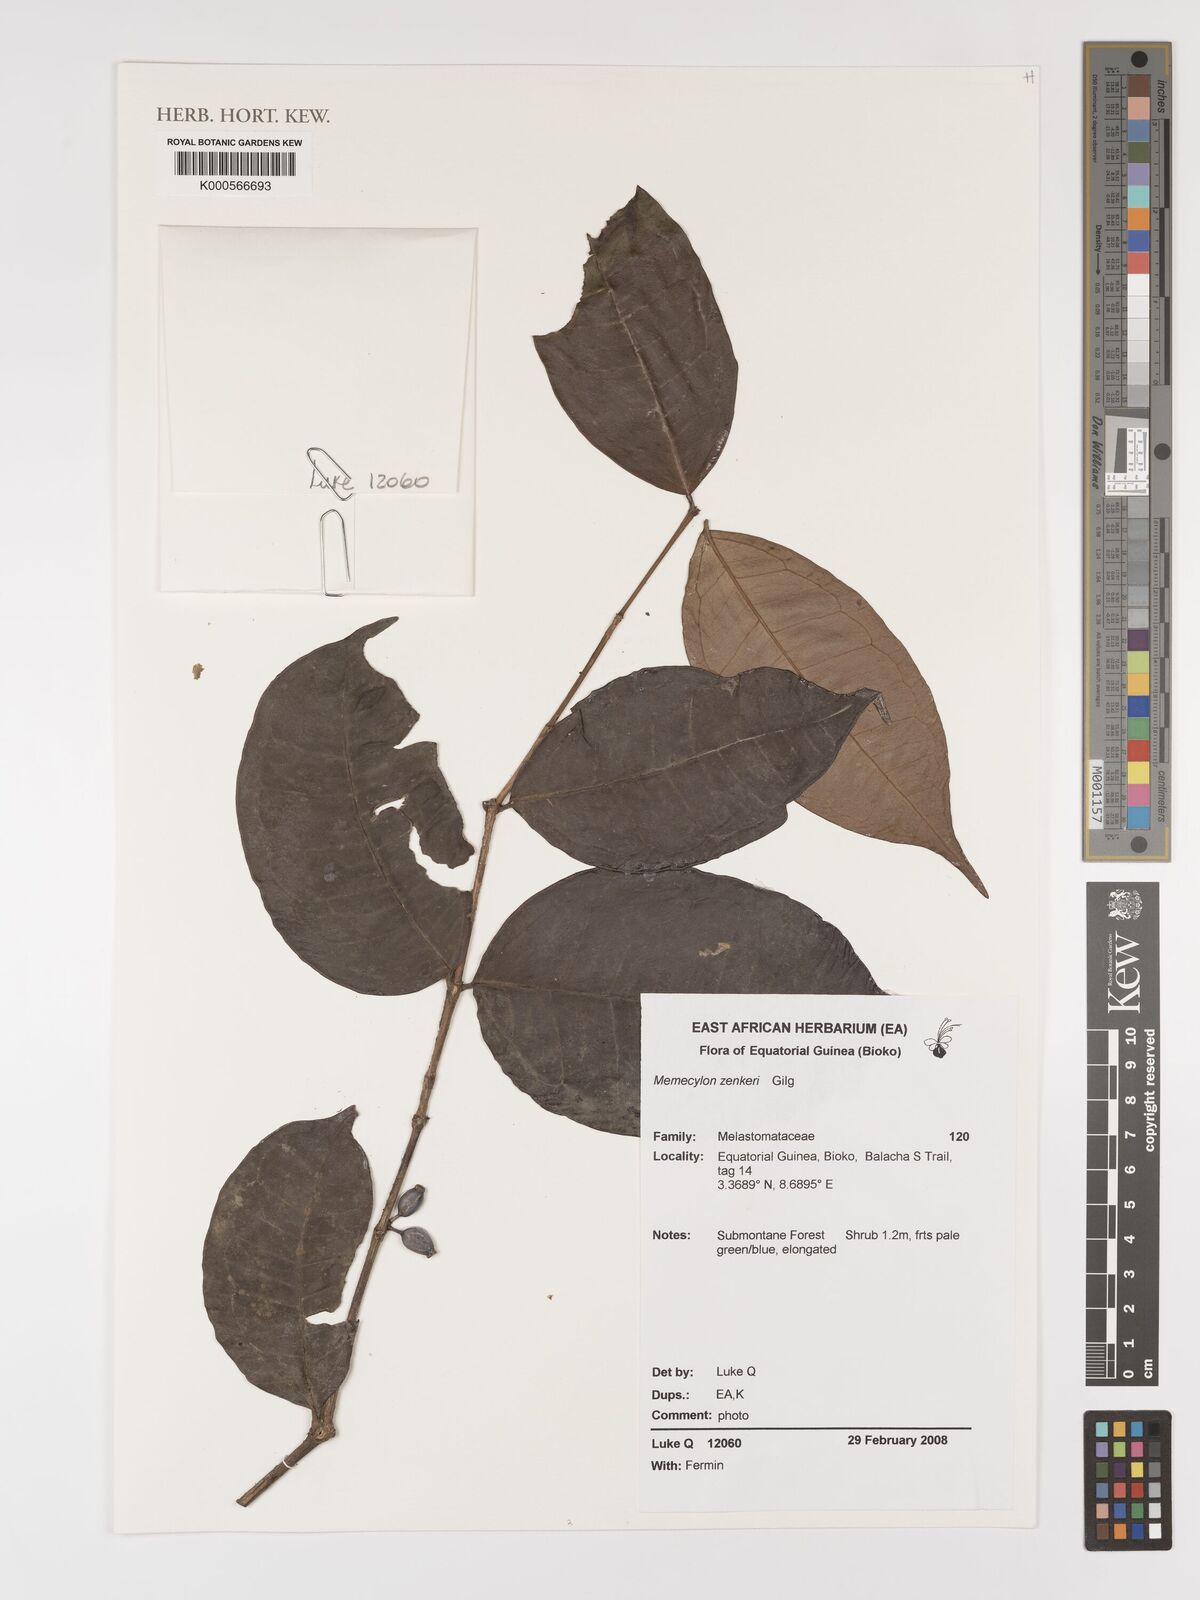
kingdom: Plantae
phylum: Tracheophyta
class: Magnoliopsida
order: Myrtales
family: Melastomataceae
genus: Memecylon
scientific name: Memecylon zenkeri
